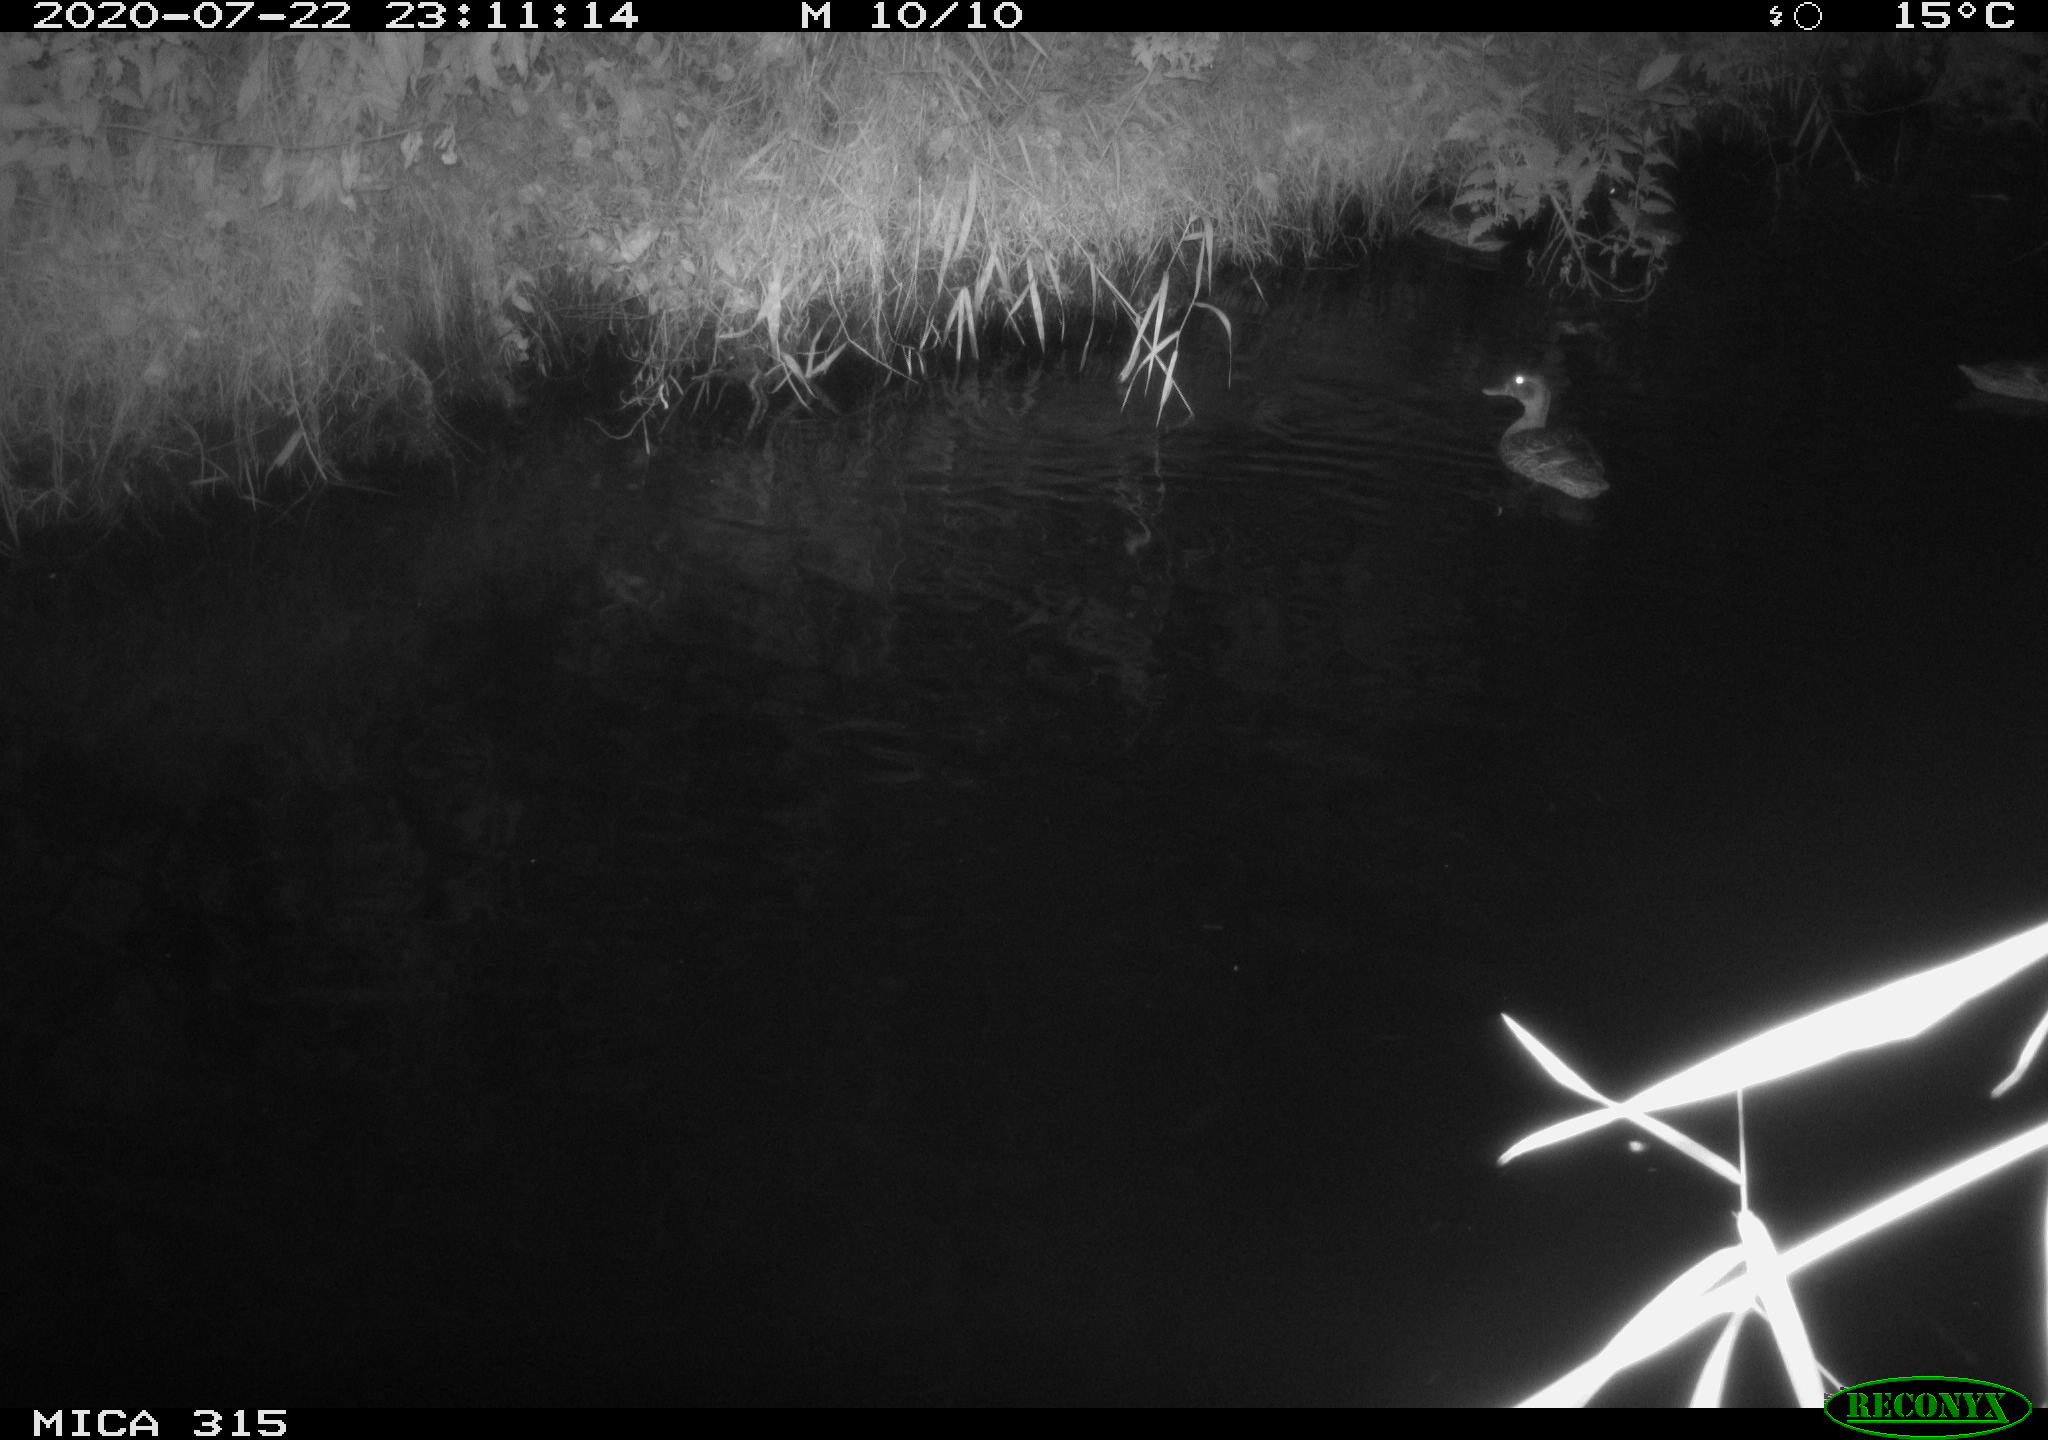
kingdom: Animalia
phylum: Chordata
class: Aves
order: Anseriformes
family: Anatidae
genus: Anas
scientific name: Anas platyrhynchos
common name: Mallard
